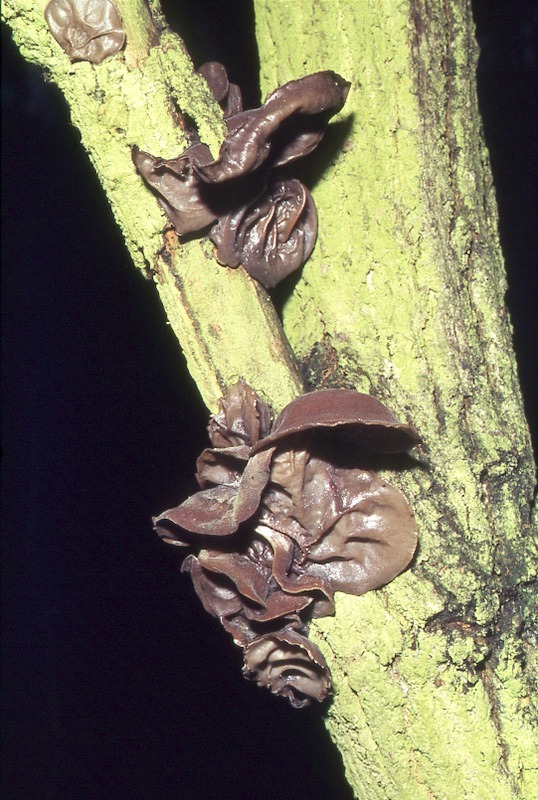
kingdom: Fungi
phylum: Basidiomycota
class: Agaricomycetes
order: Auriculariales
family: Auriculariaceae
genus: Auricularia
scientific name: Auricularia auricula-judae
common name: Jelly ear
